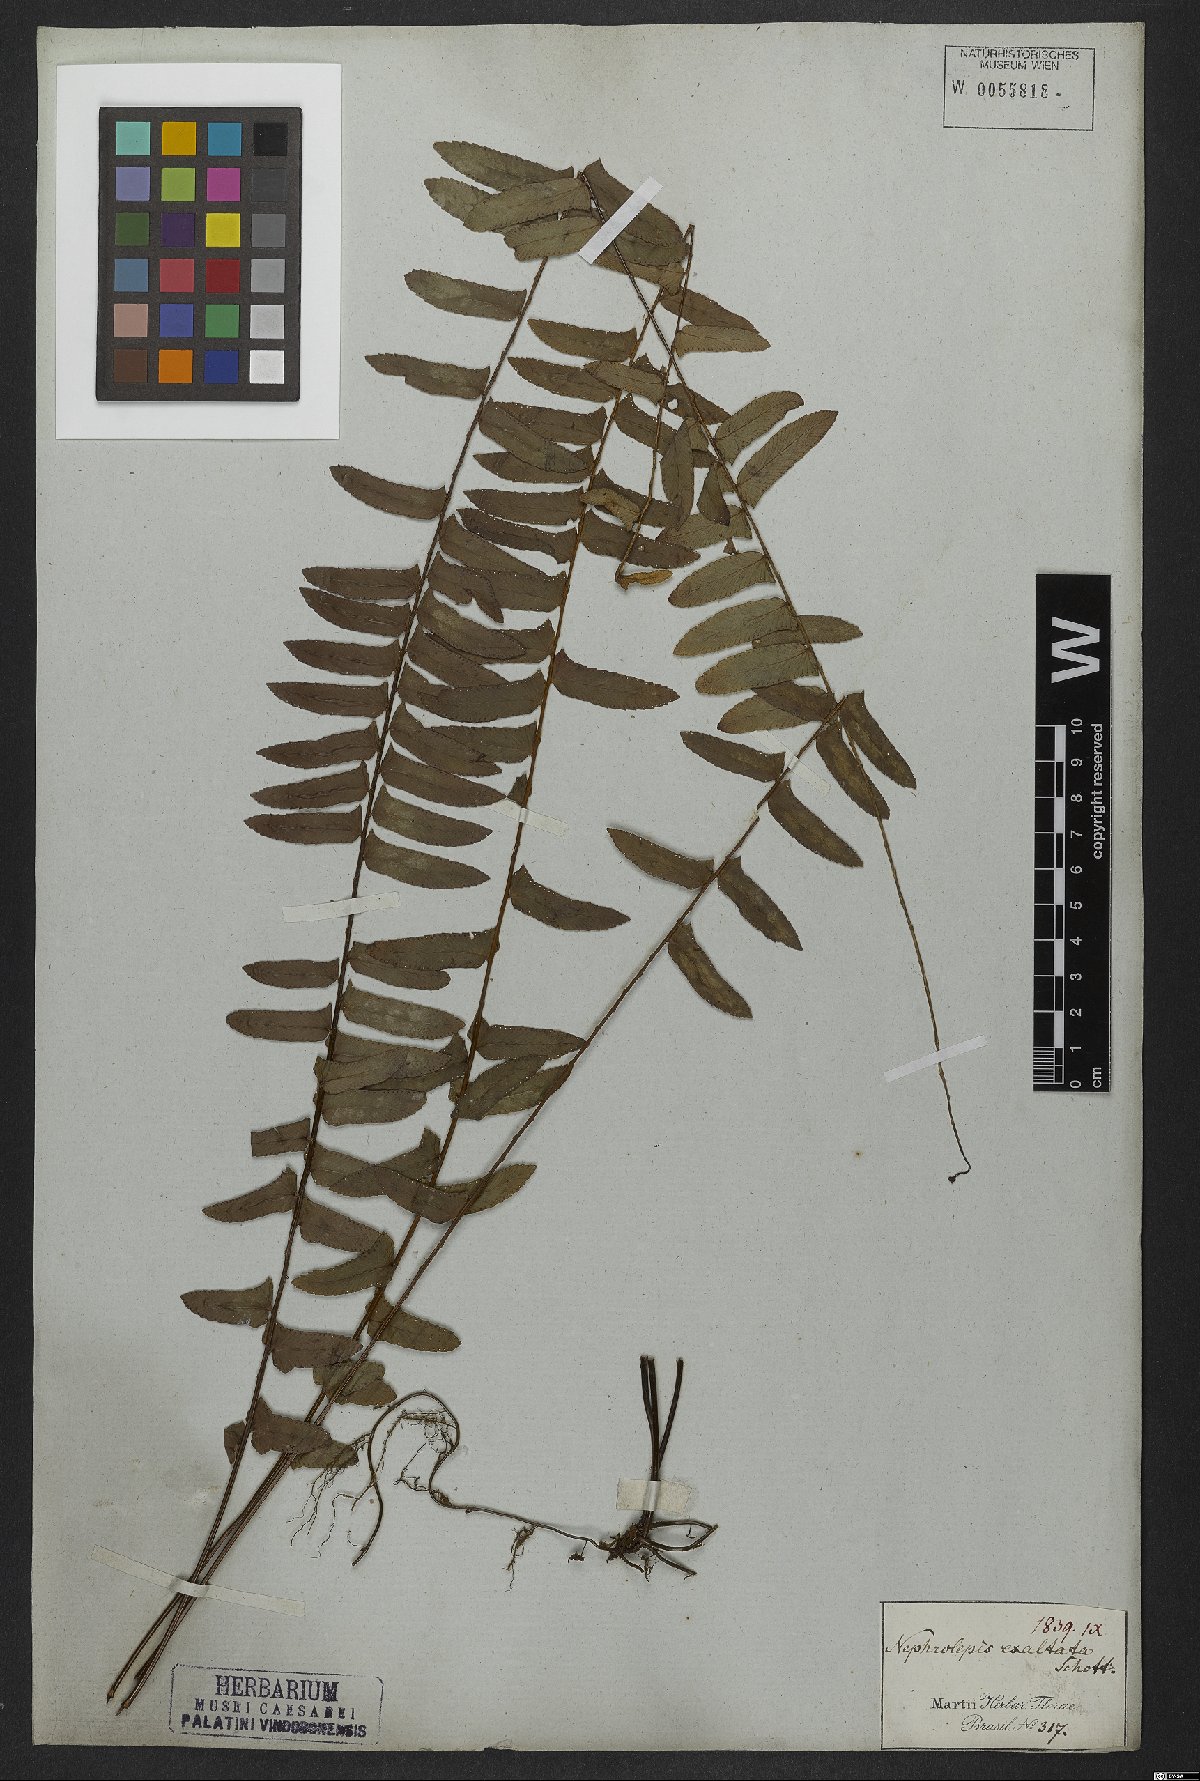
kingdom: Plantae
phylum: Tracheophyta
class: Polypodiopsida
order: Polypodiales
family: Nephrolepidaceae
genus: Nephrolepis
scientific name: Nephrolepis exaltata
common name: Sword fern
